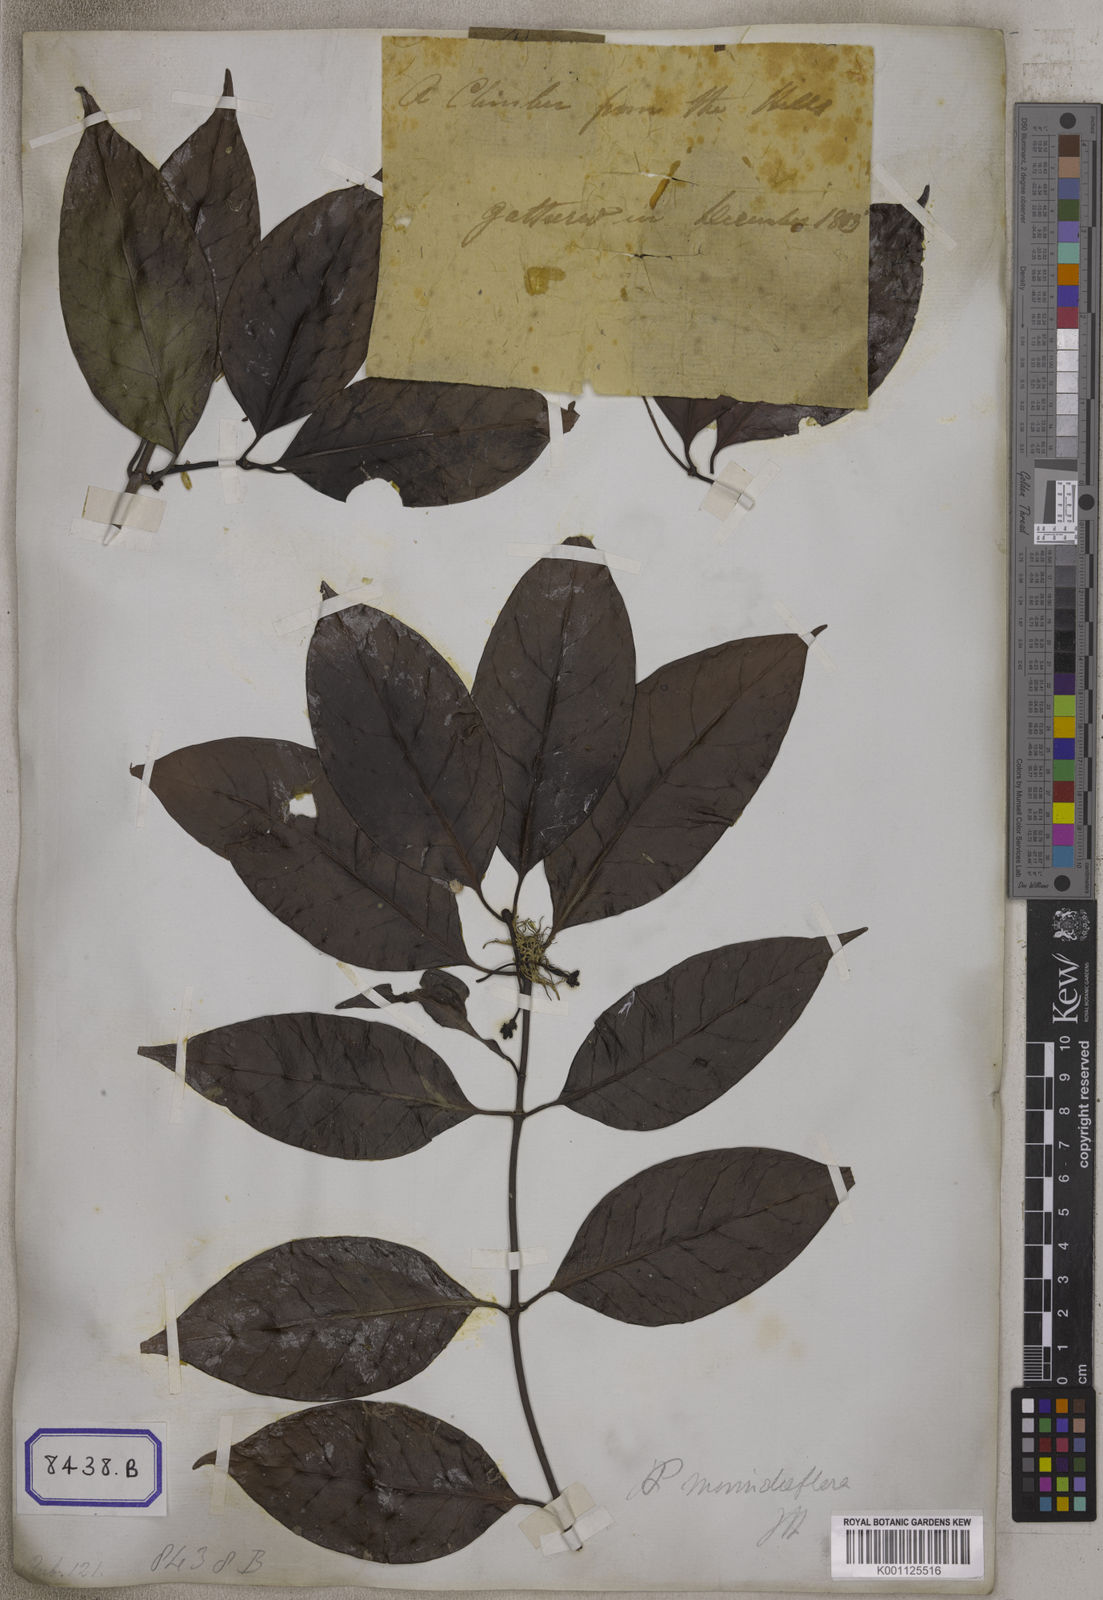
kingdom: Plantae
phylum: Tracheophyta
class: Magnoliopsida
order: Gentianales
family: Rubiaceae
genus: Psychotria
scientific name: Psychotria
